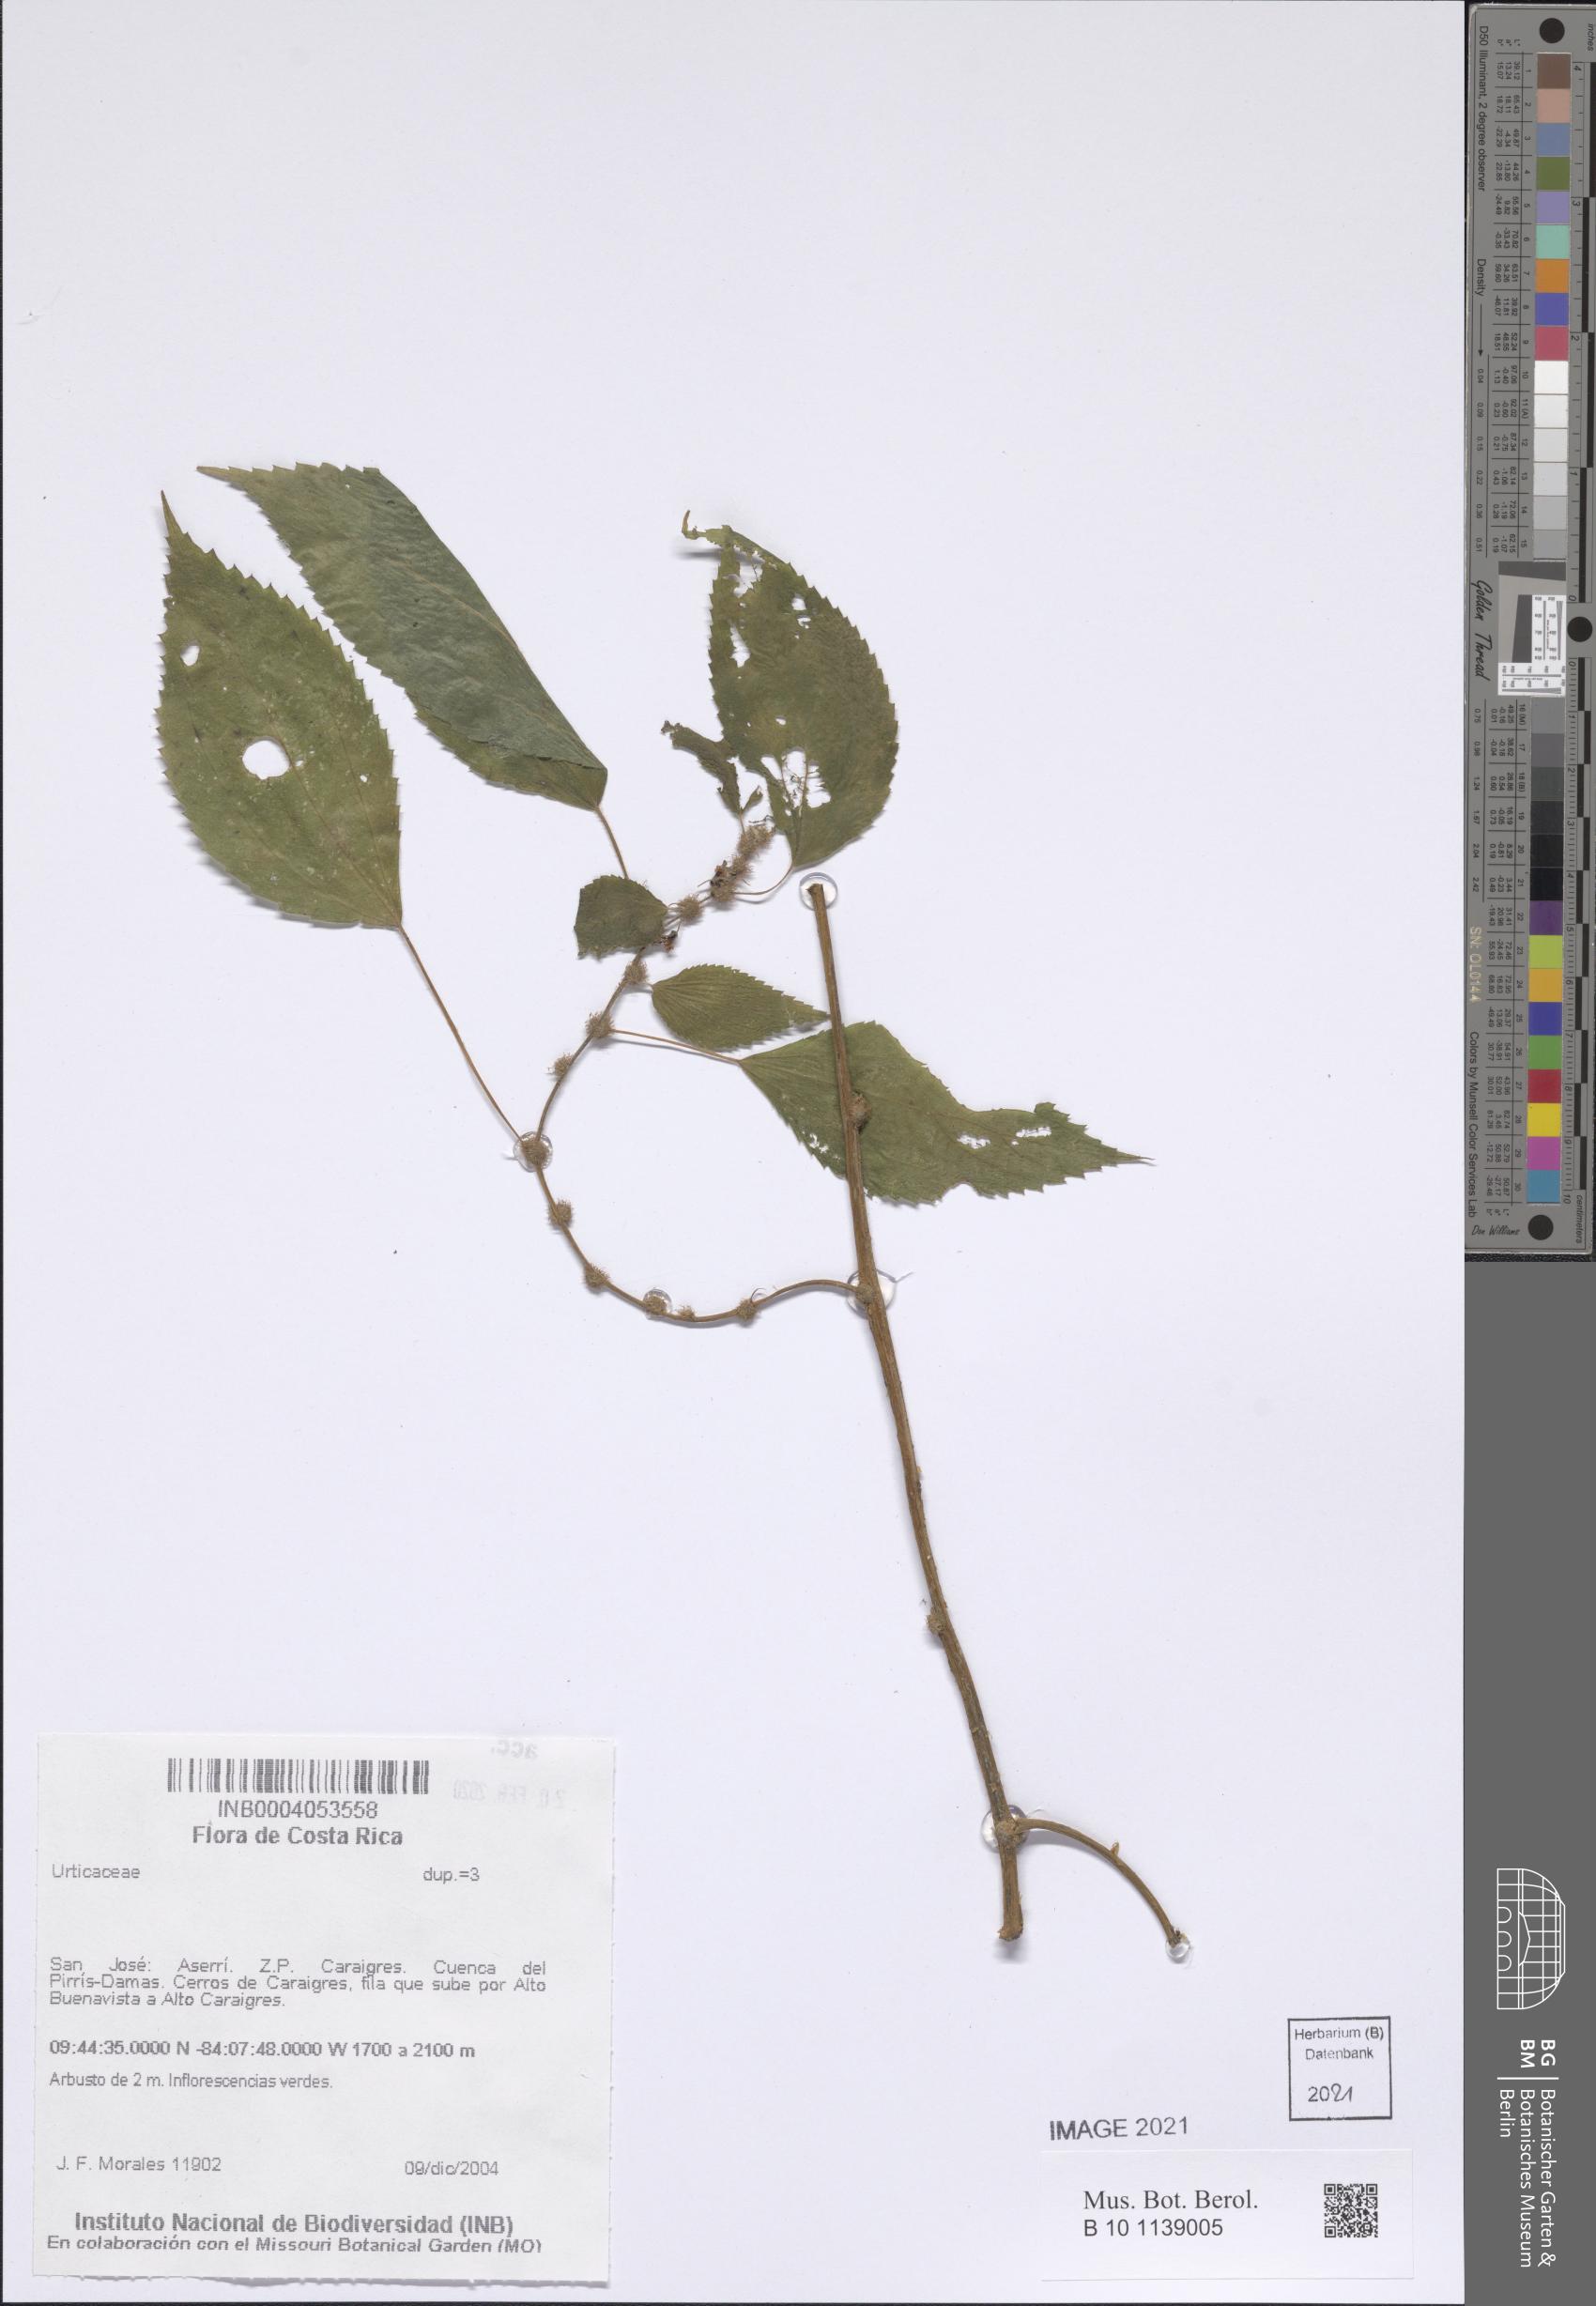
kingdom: Plantae
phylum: Tracheophyta
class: Magnoliopsida
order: Rosales
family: Urticaceae
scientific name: Urticaceae
